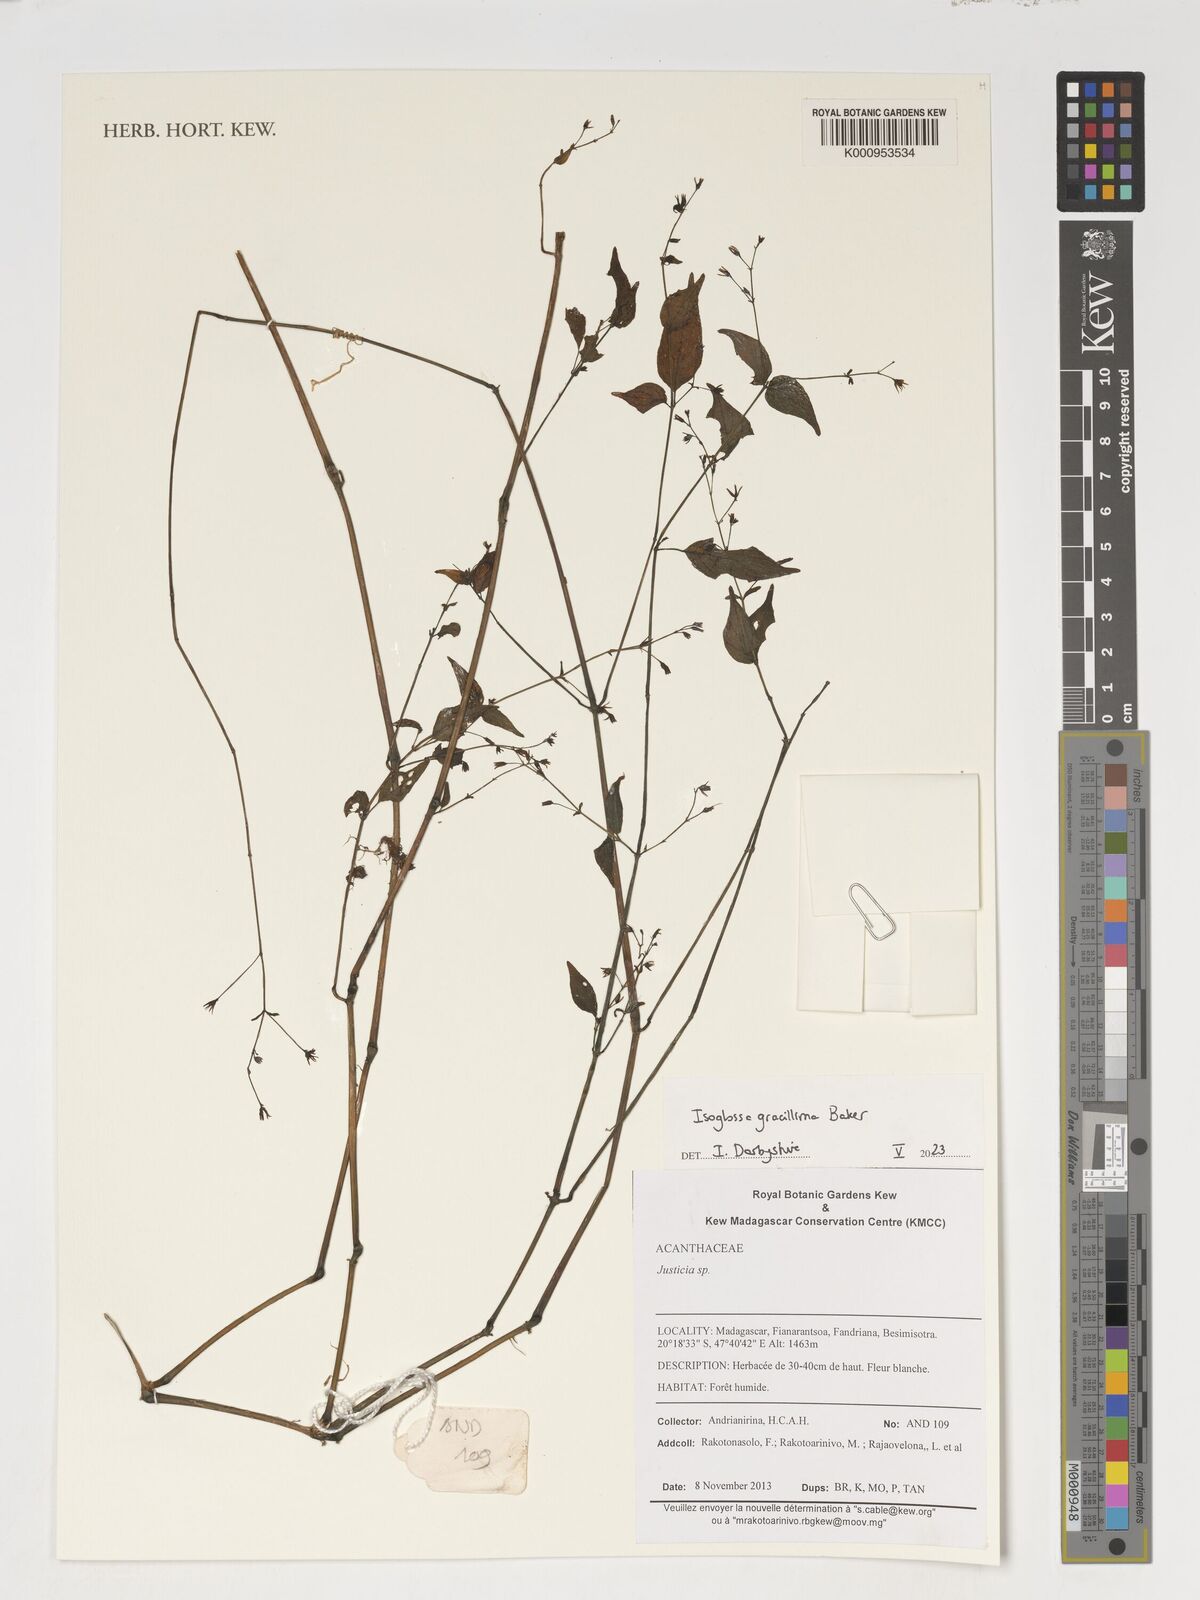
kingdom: Plantae
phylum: Tracheophyta
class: Magnoliopsida
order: Lamiales
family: Acanthaceae
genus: Isoglossa
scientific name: Isoglossa gracillima
